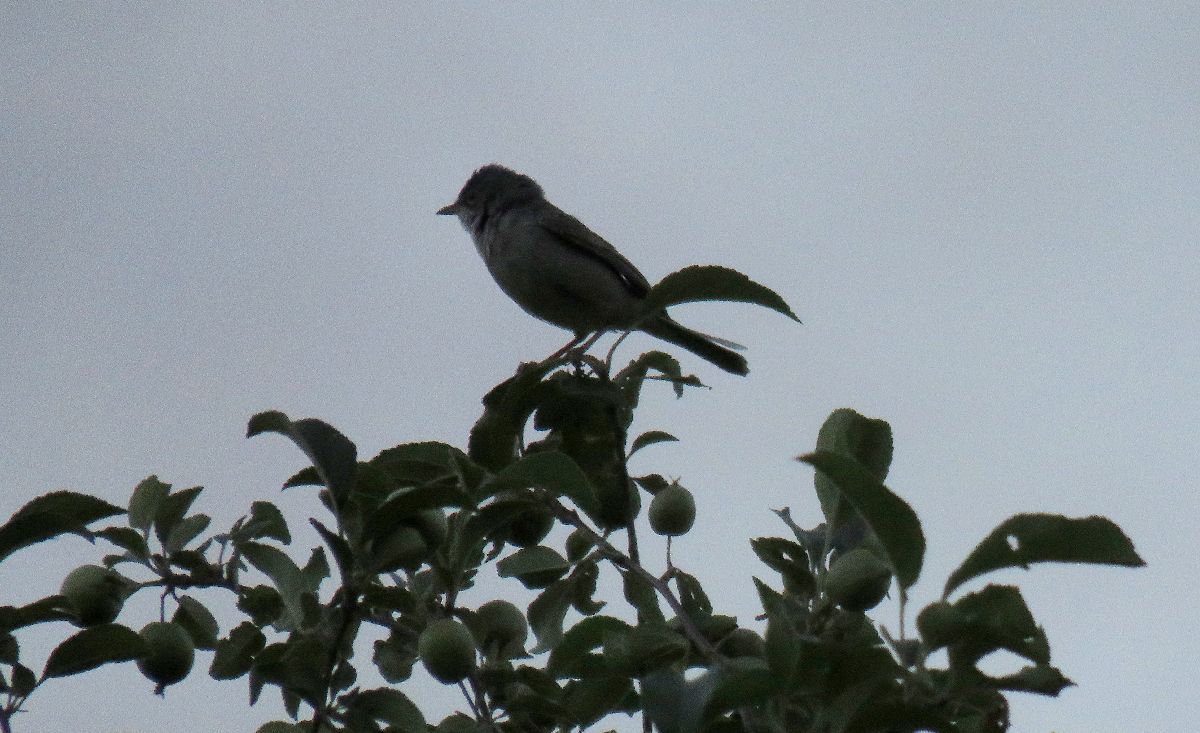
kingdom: Animalia
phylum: Chordata
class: Aves
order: Passeriformes
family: Sylviidae
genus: Sylvia
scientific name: Sylvia communis
